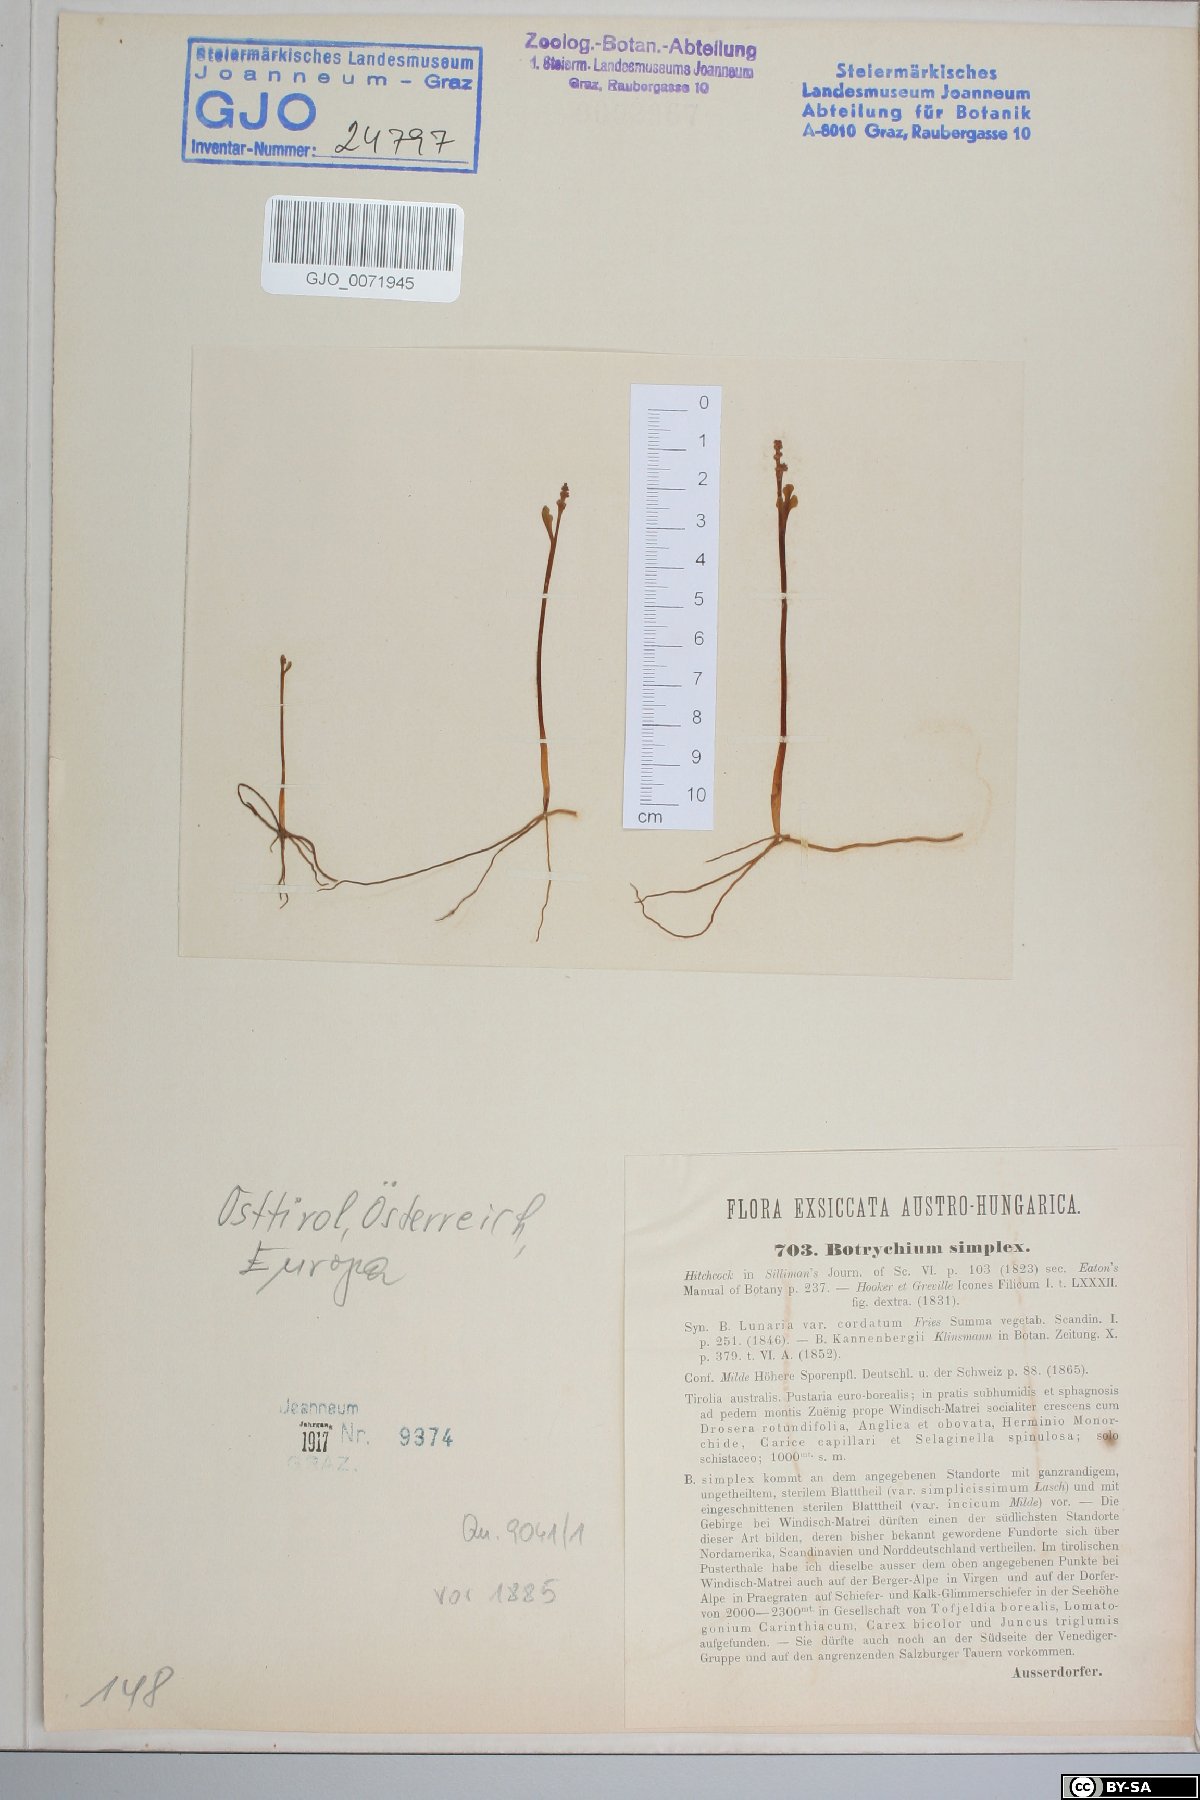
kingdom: Plantae
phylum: Tracheophyta
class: Polypodiopsida
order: Ophioglossales
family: Ophioglossaceae
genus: Botrychium
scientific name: Botrychium simplex
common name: Least moonwort
